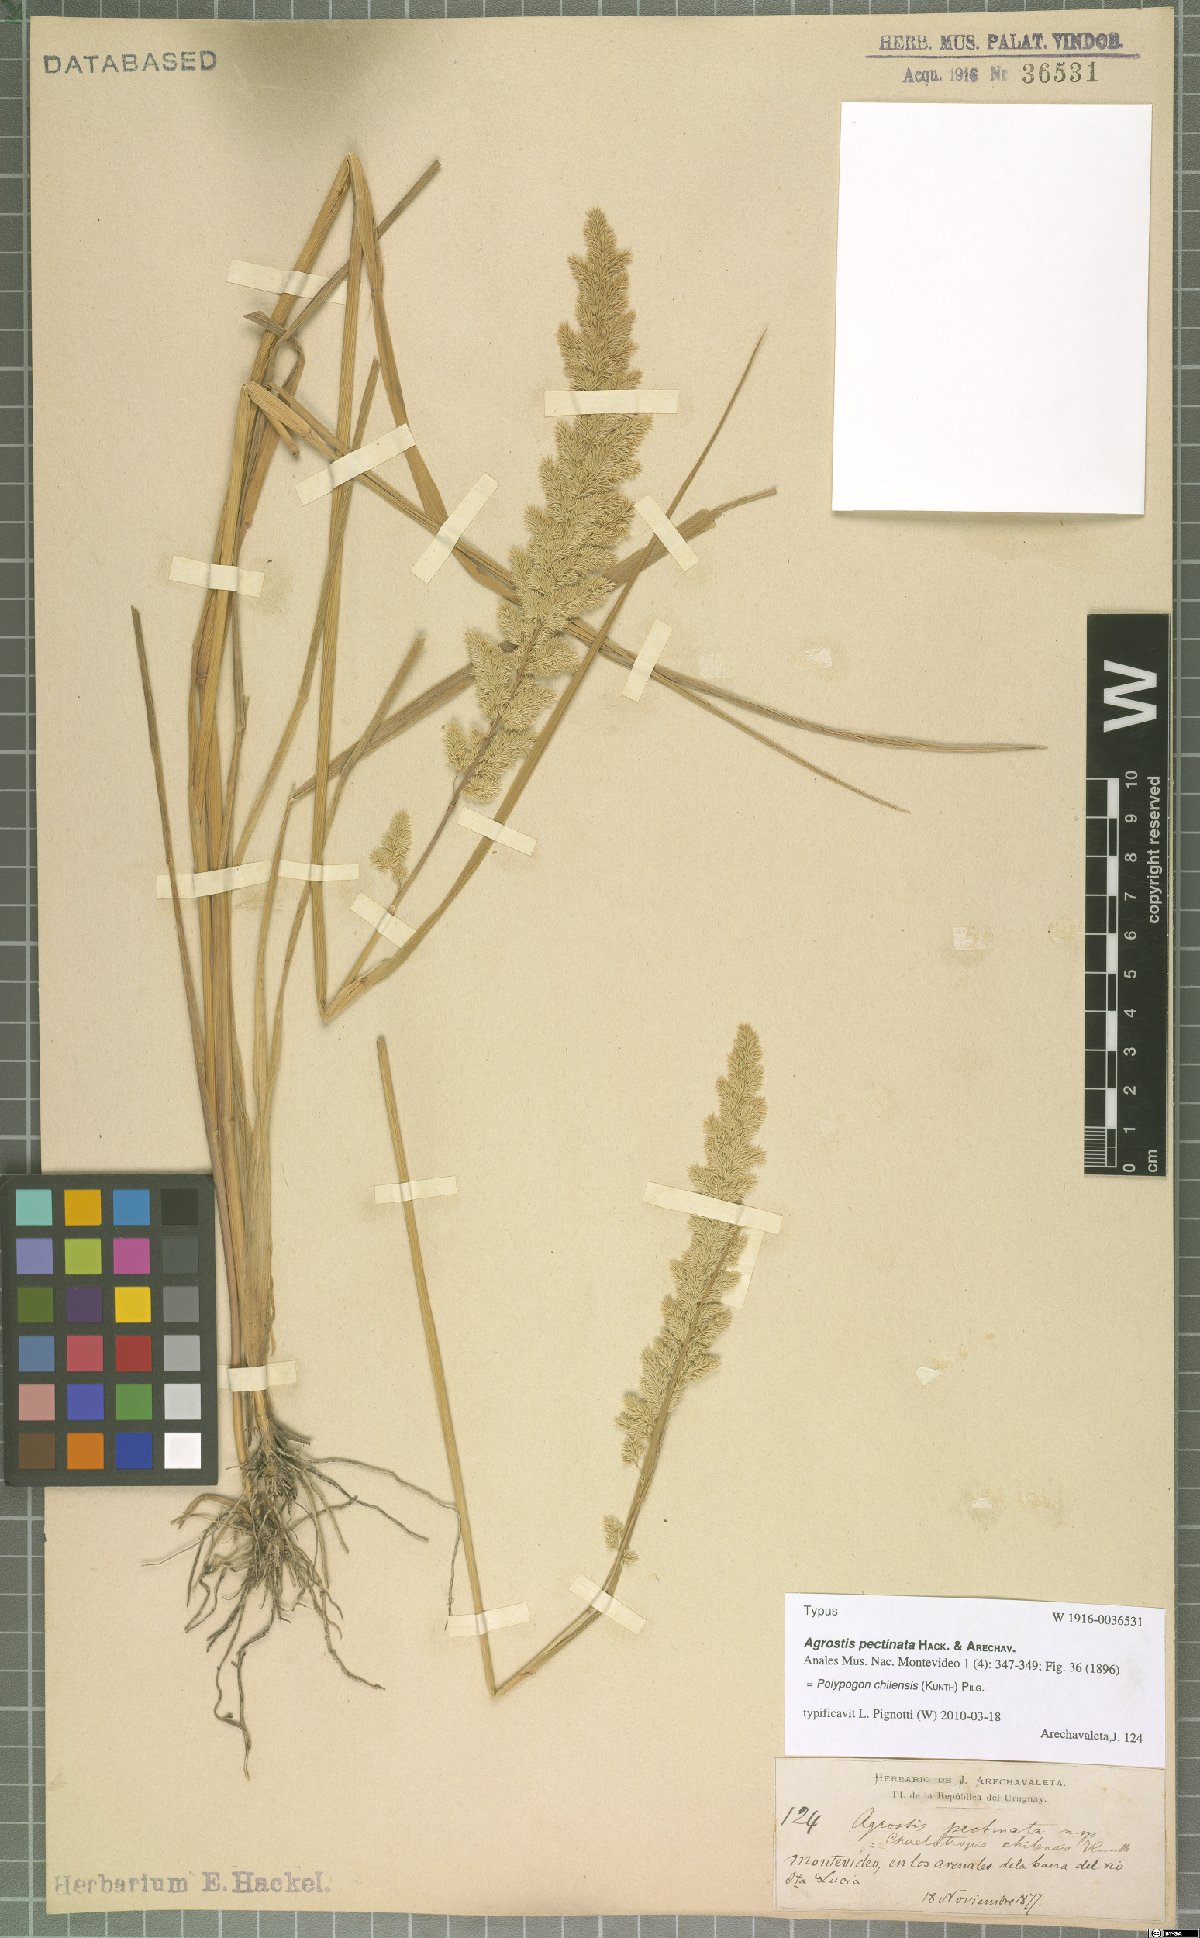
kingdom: Plantae
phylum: Tracheophyta
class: Liliopsida
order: Poales
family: Poaceae
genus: Polypogon
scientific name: Polypogon chilensis
